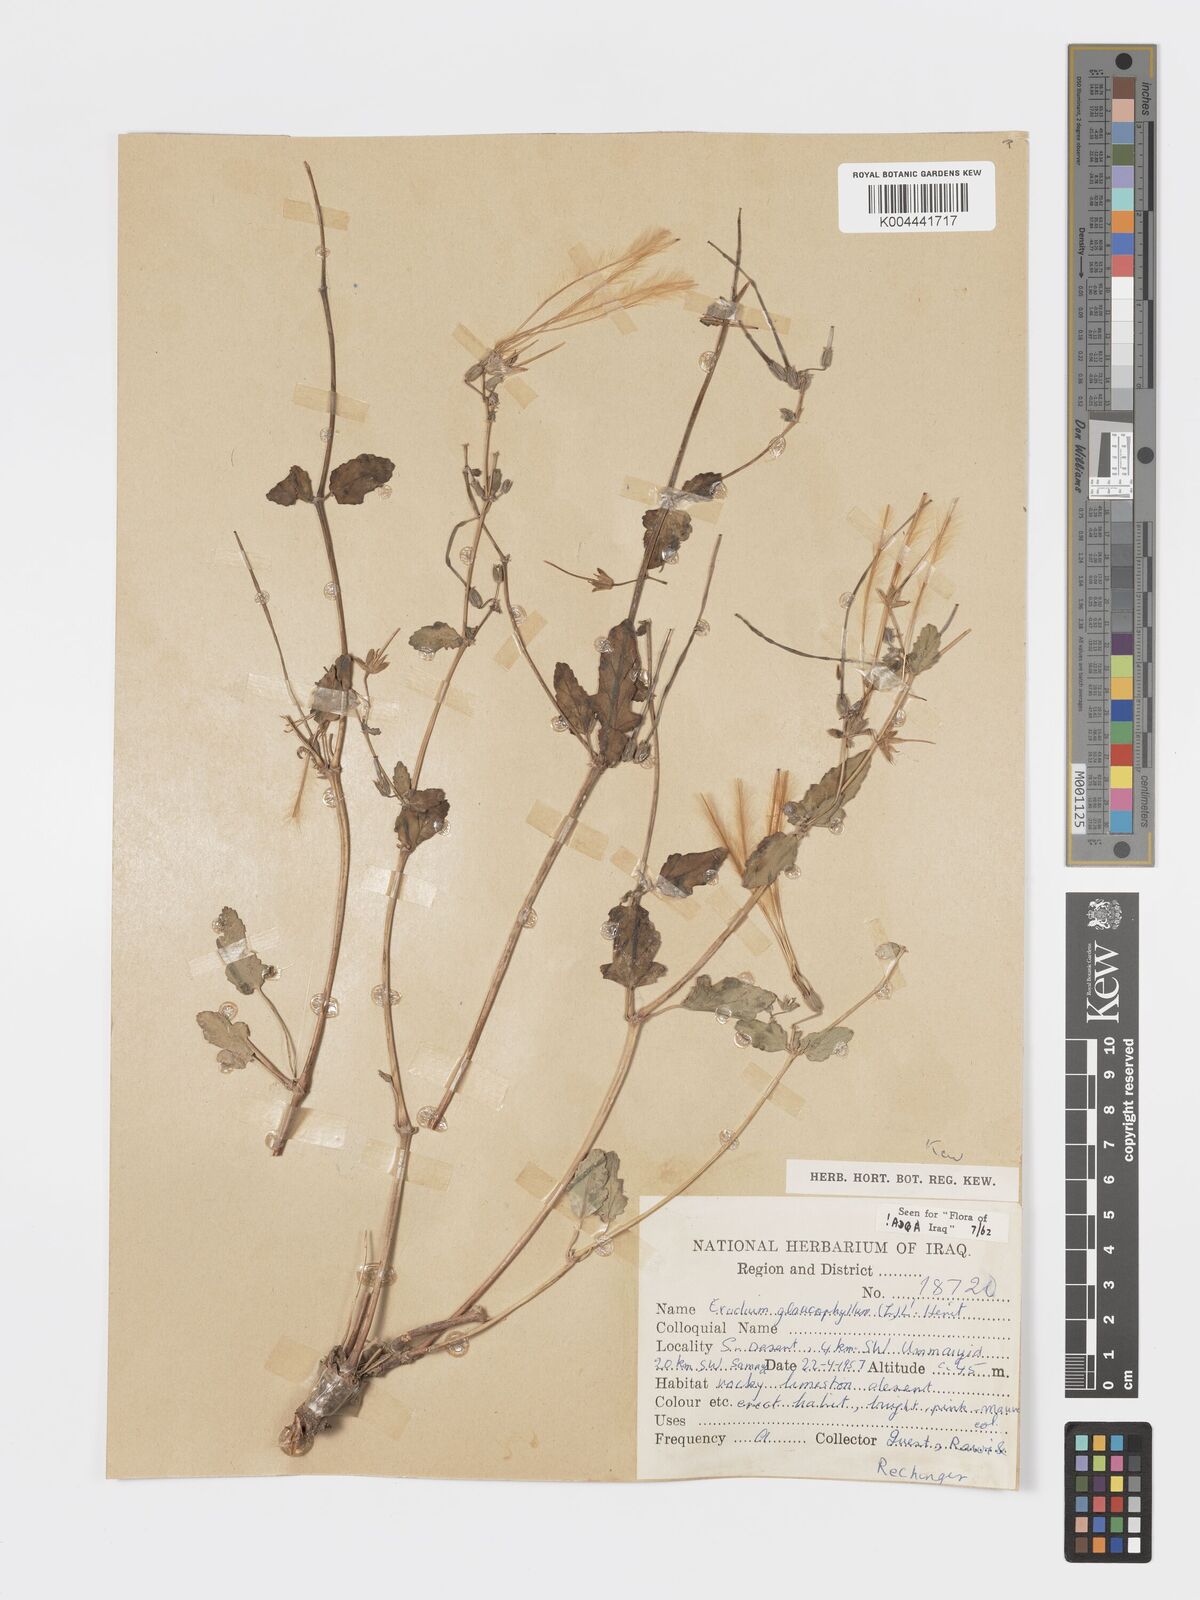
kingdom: Plantae
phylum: Tracheophyta
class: Magnoliopsida
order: Geraniales
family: Geraniaceae
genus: Erodium
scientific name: Erodium glaucophyllum
